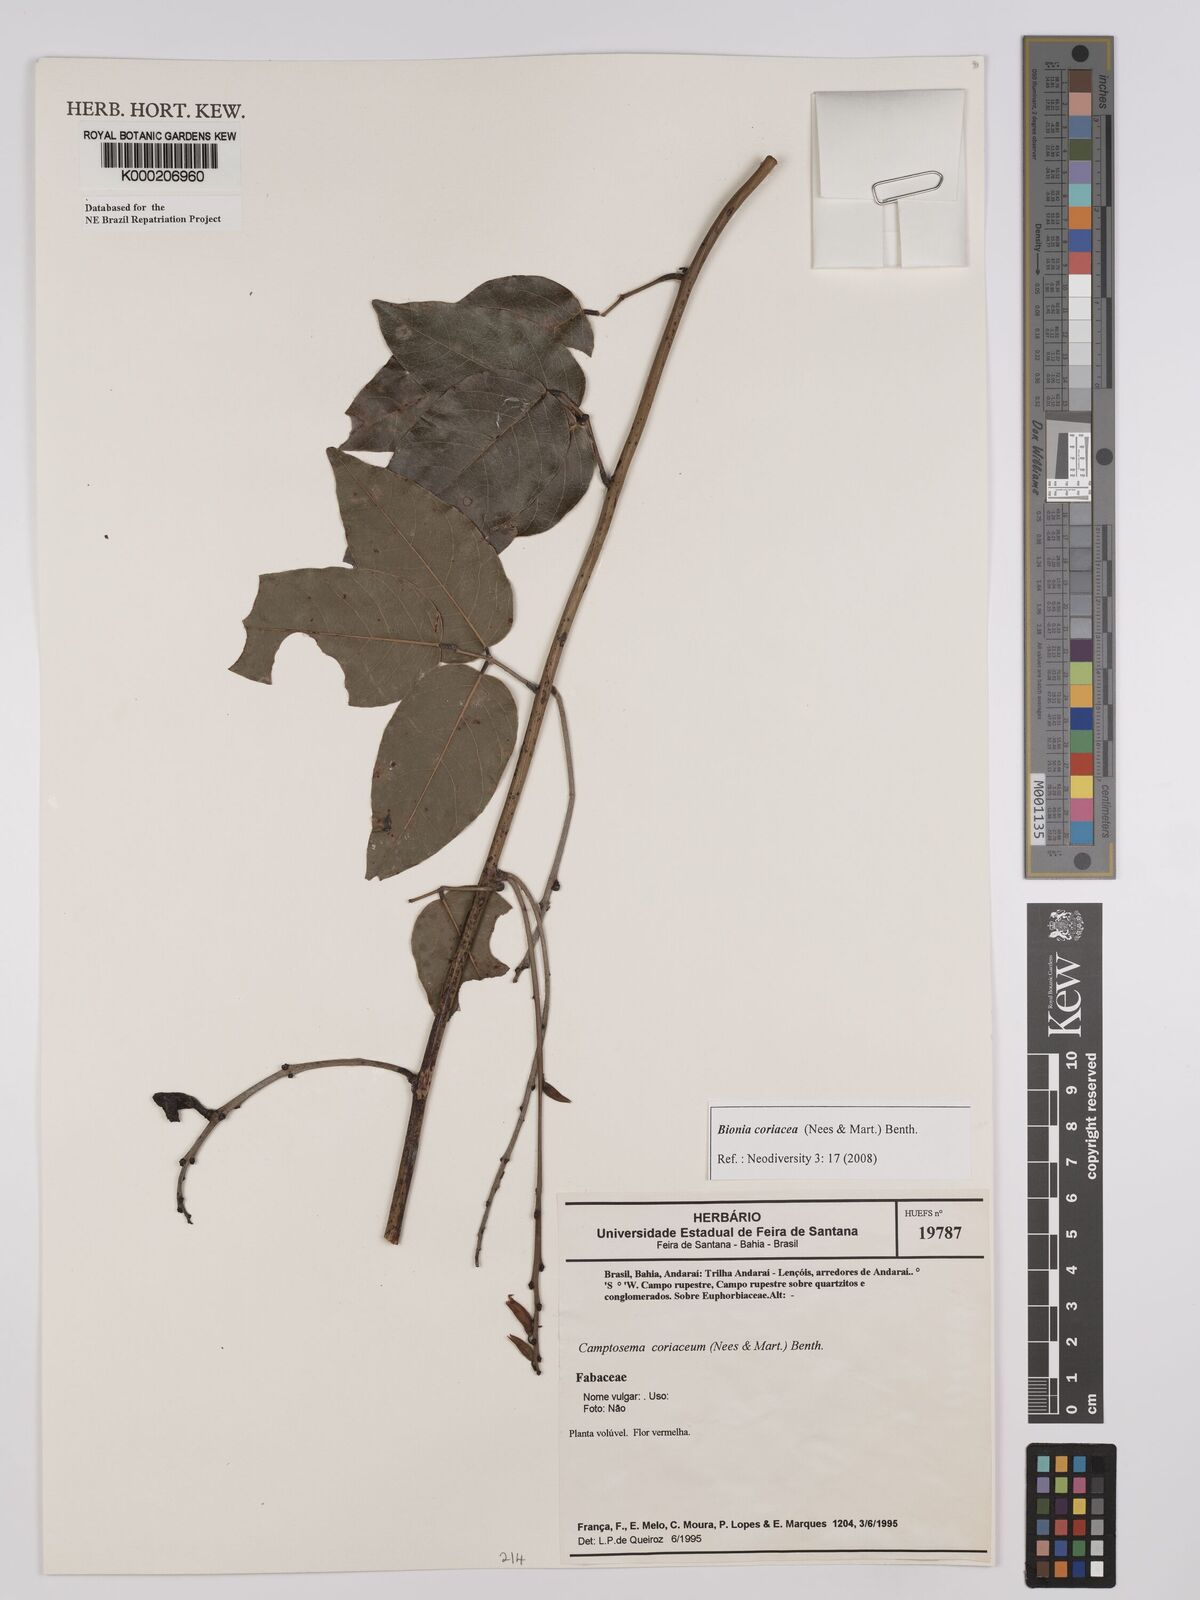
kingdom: Plantae
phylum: Tracheophyta
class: Magnoliopsida
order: Fabales
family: Fabaceae
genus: Camptosema
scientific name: Camptosema coriaceum
